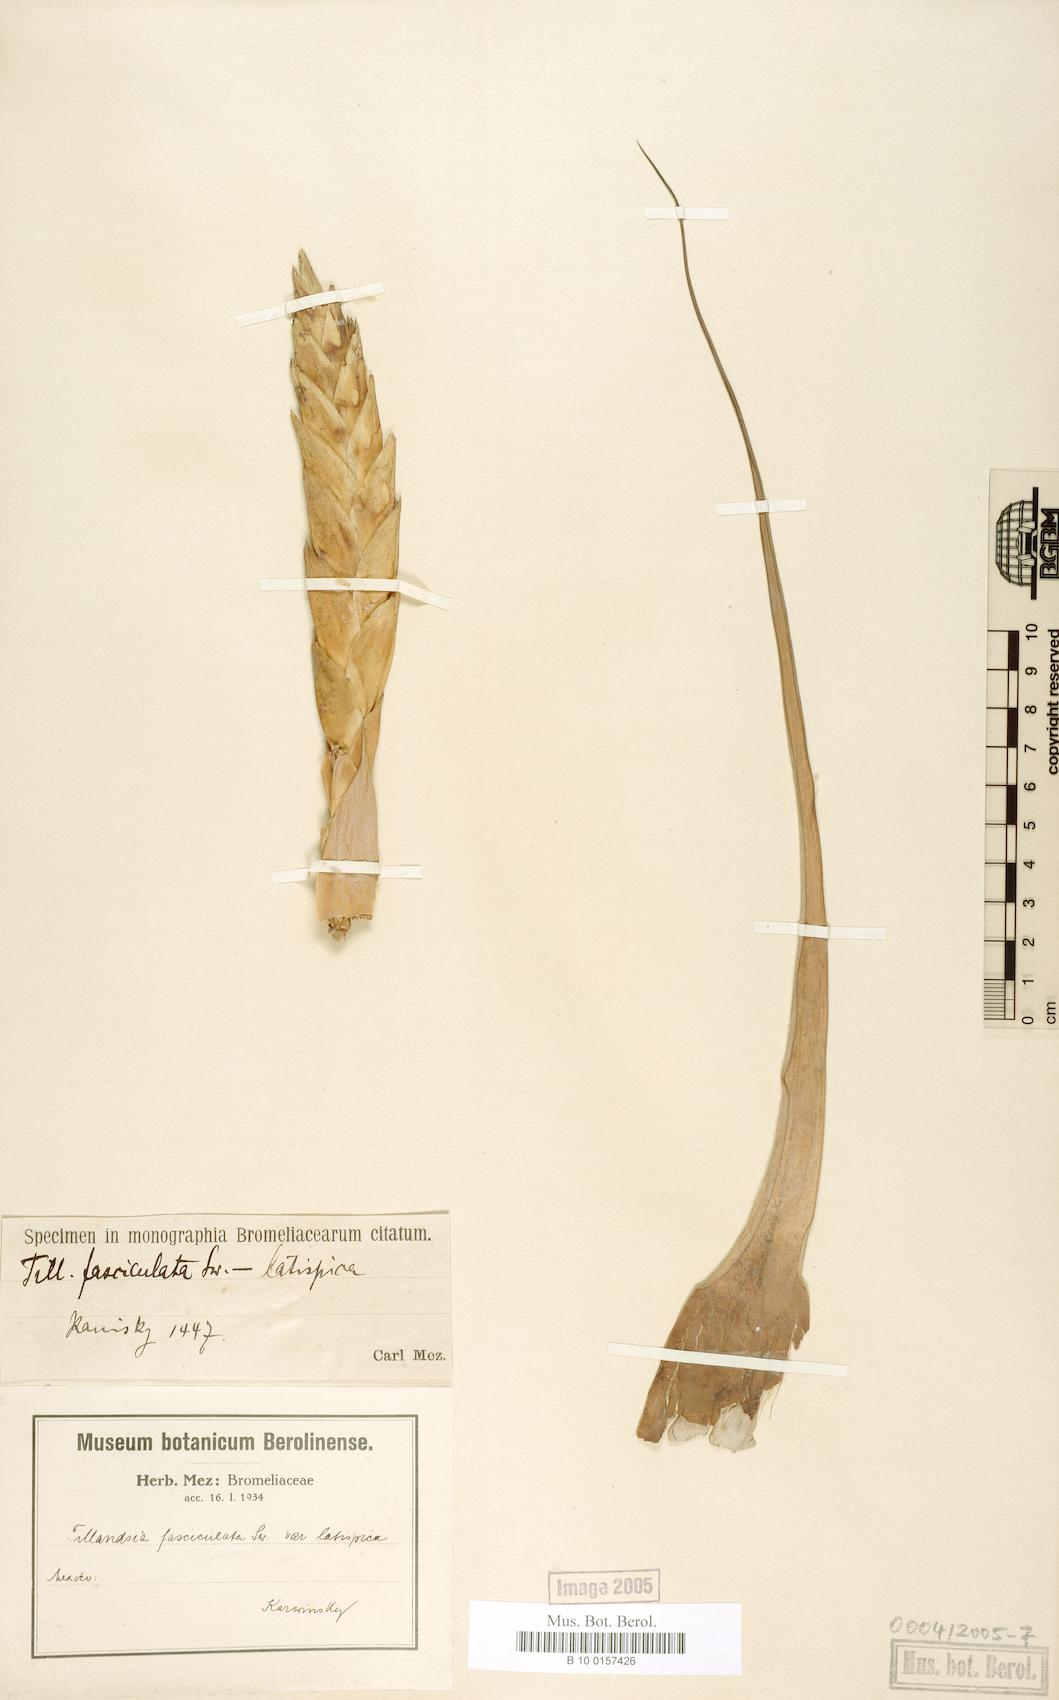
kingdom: Plantae
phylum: Tracheophyta
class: Liliopsida
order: Poales
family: Bromeliaceae
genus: Tillandsia
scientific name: Tillandsia fasciculata
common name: Giant airplant
